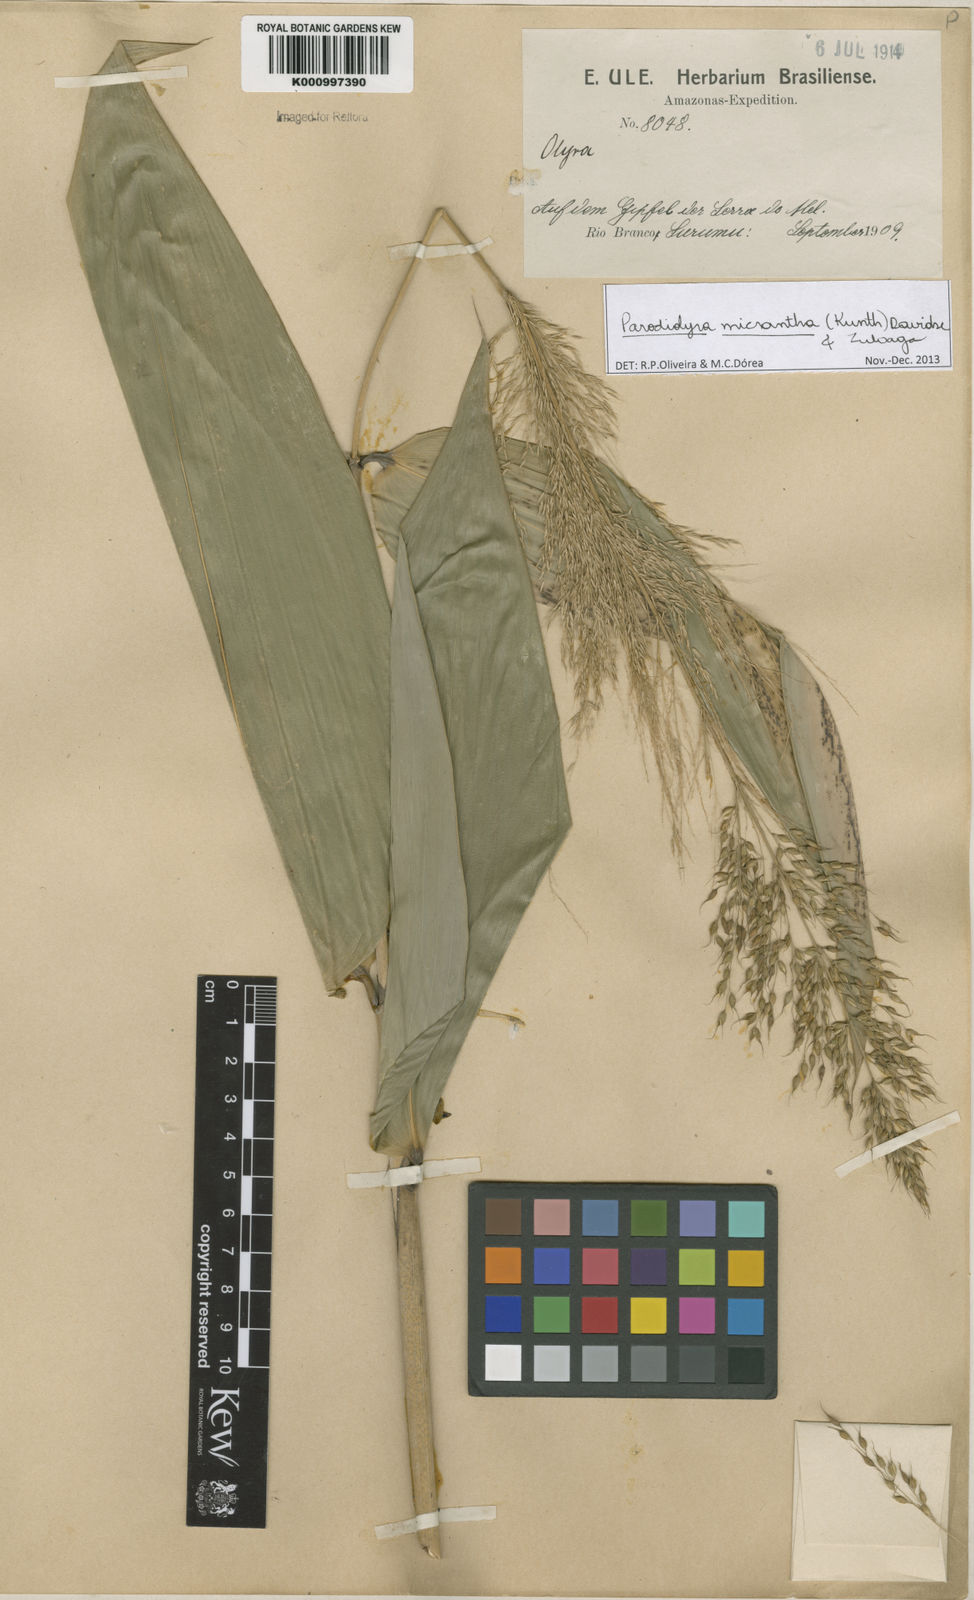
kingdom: Plantae
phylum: Tracheophyta
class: Liliopsida
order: Poales
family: Poaceae
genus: Taquara
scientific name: Taquara micrantha
